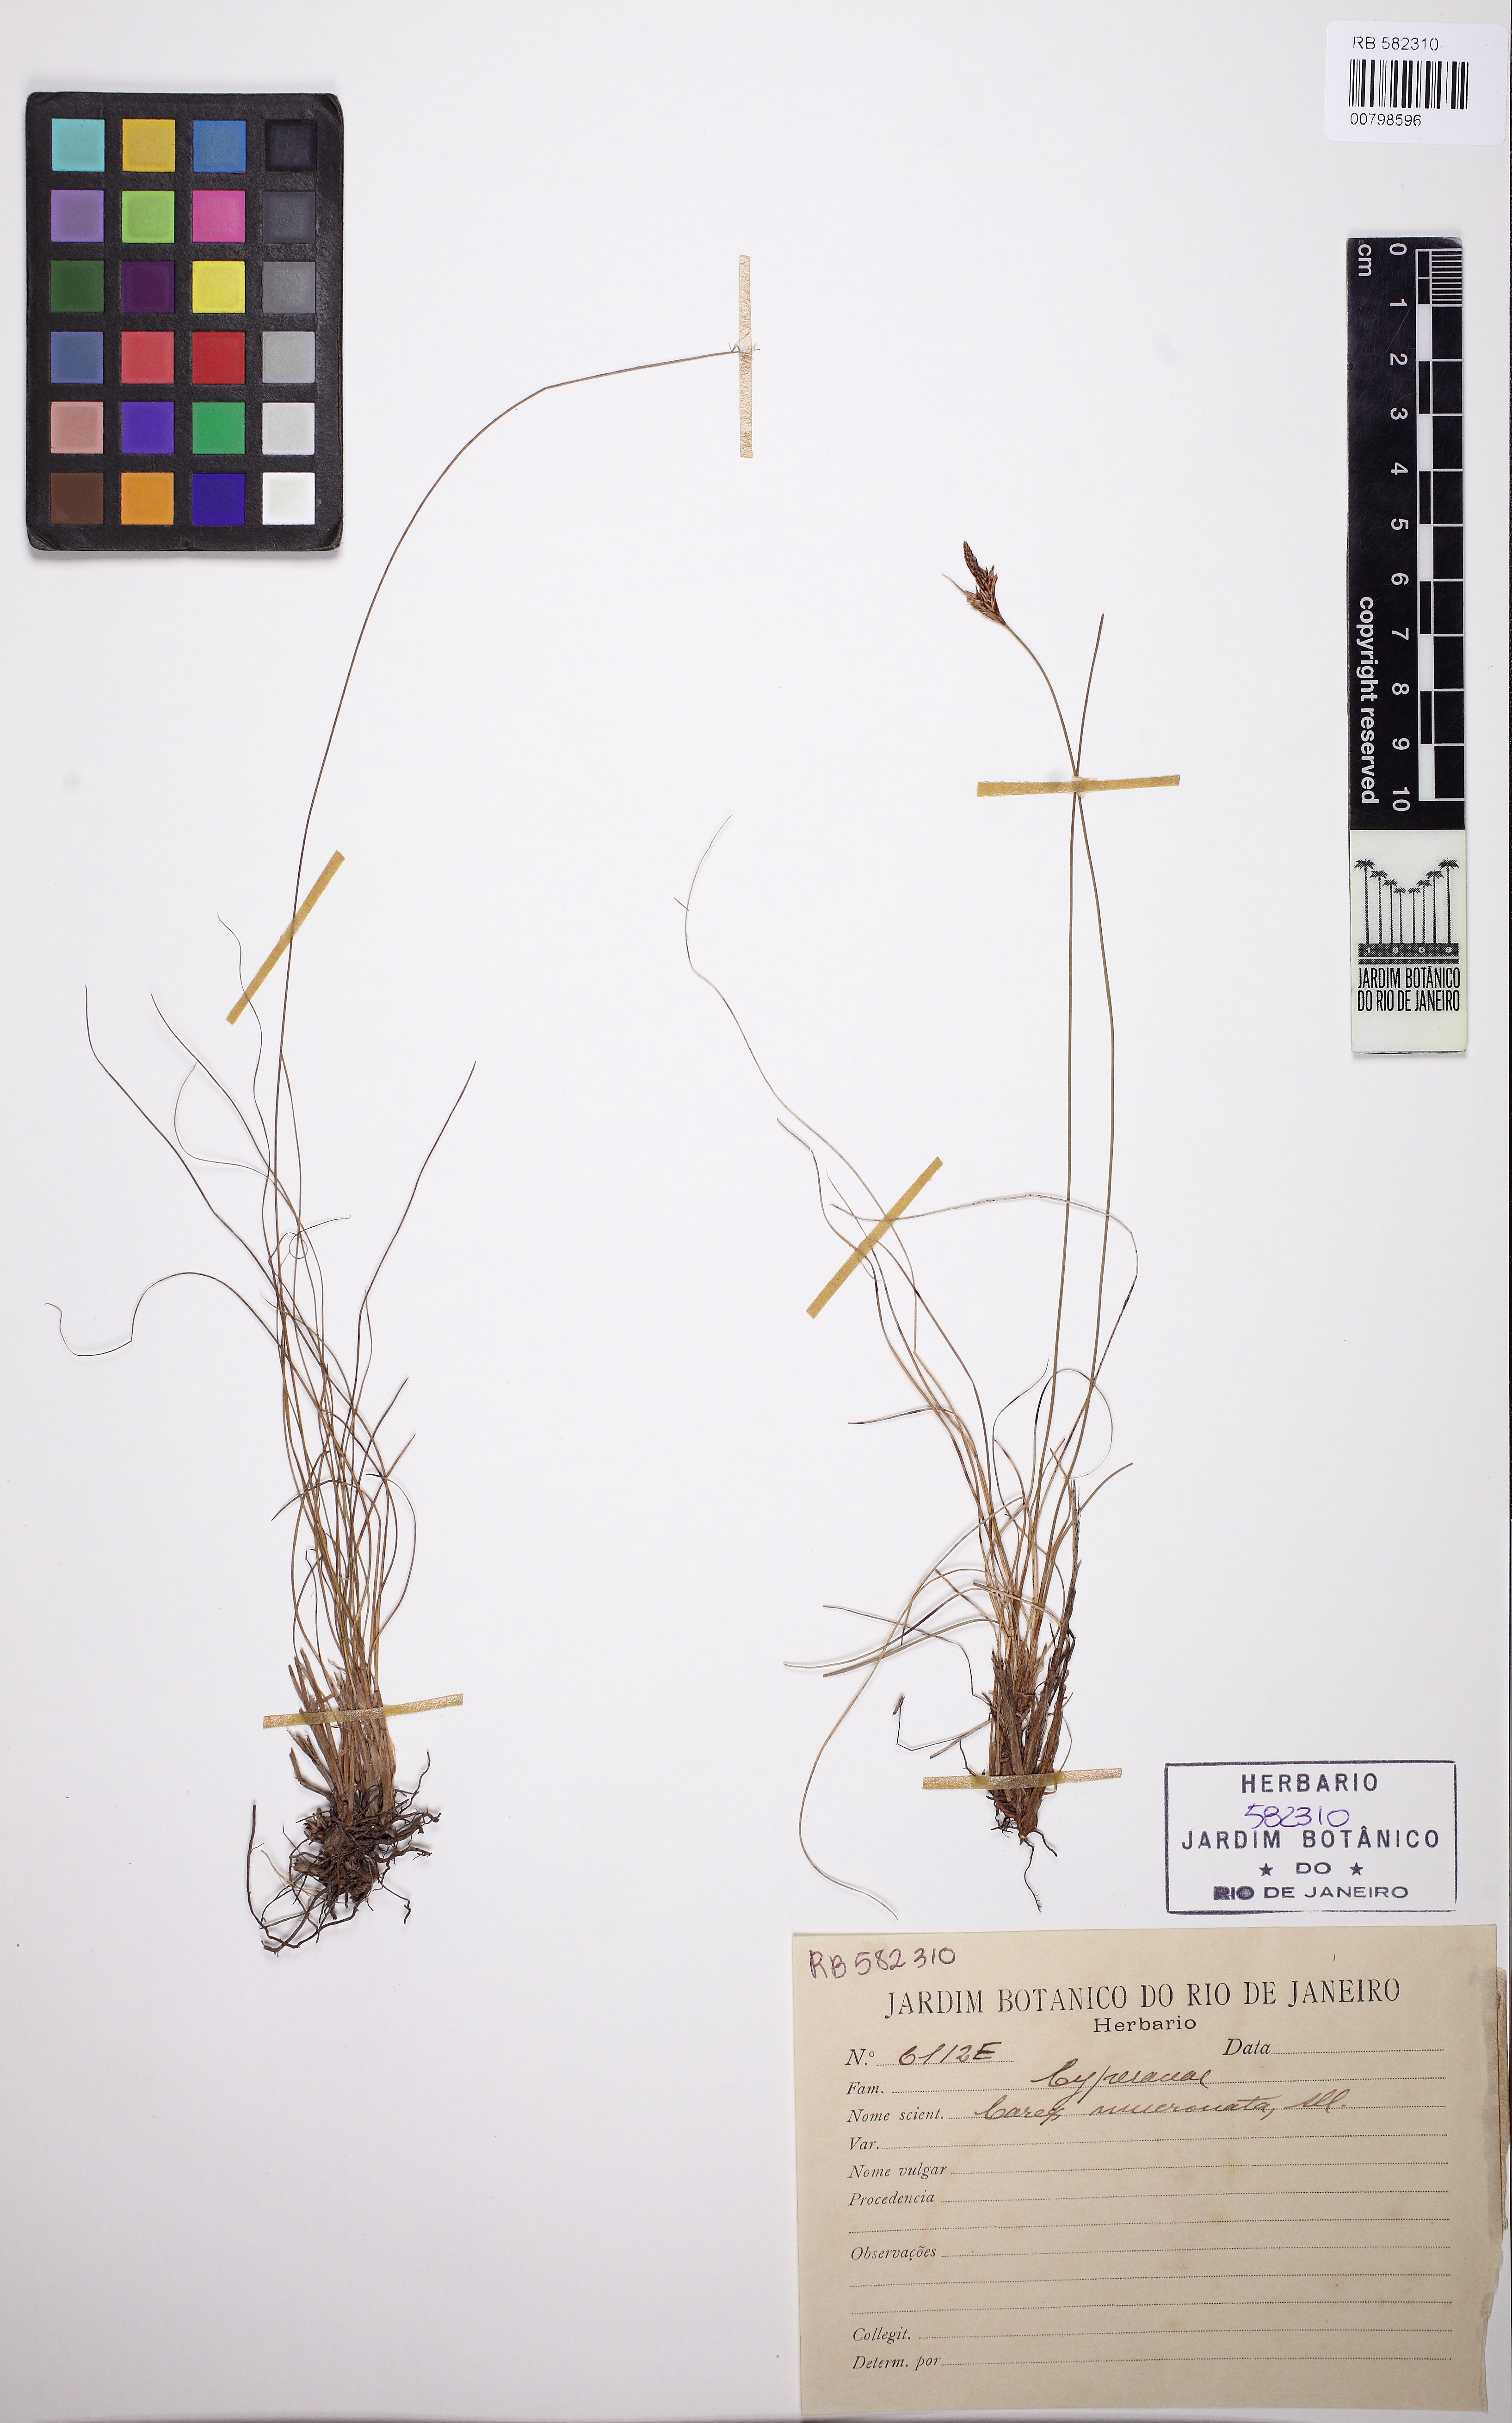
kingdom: Plantae
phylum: Tracheophyta
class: Liliopsida
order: Poales
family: Cyperaceae
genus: Carex
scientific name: Carex mucronata
